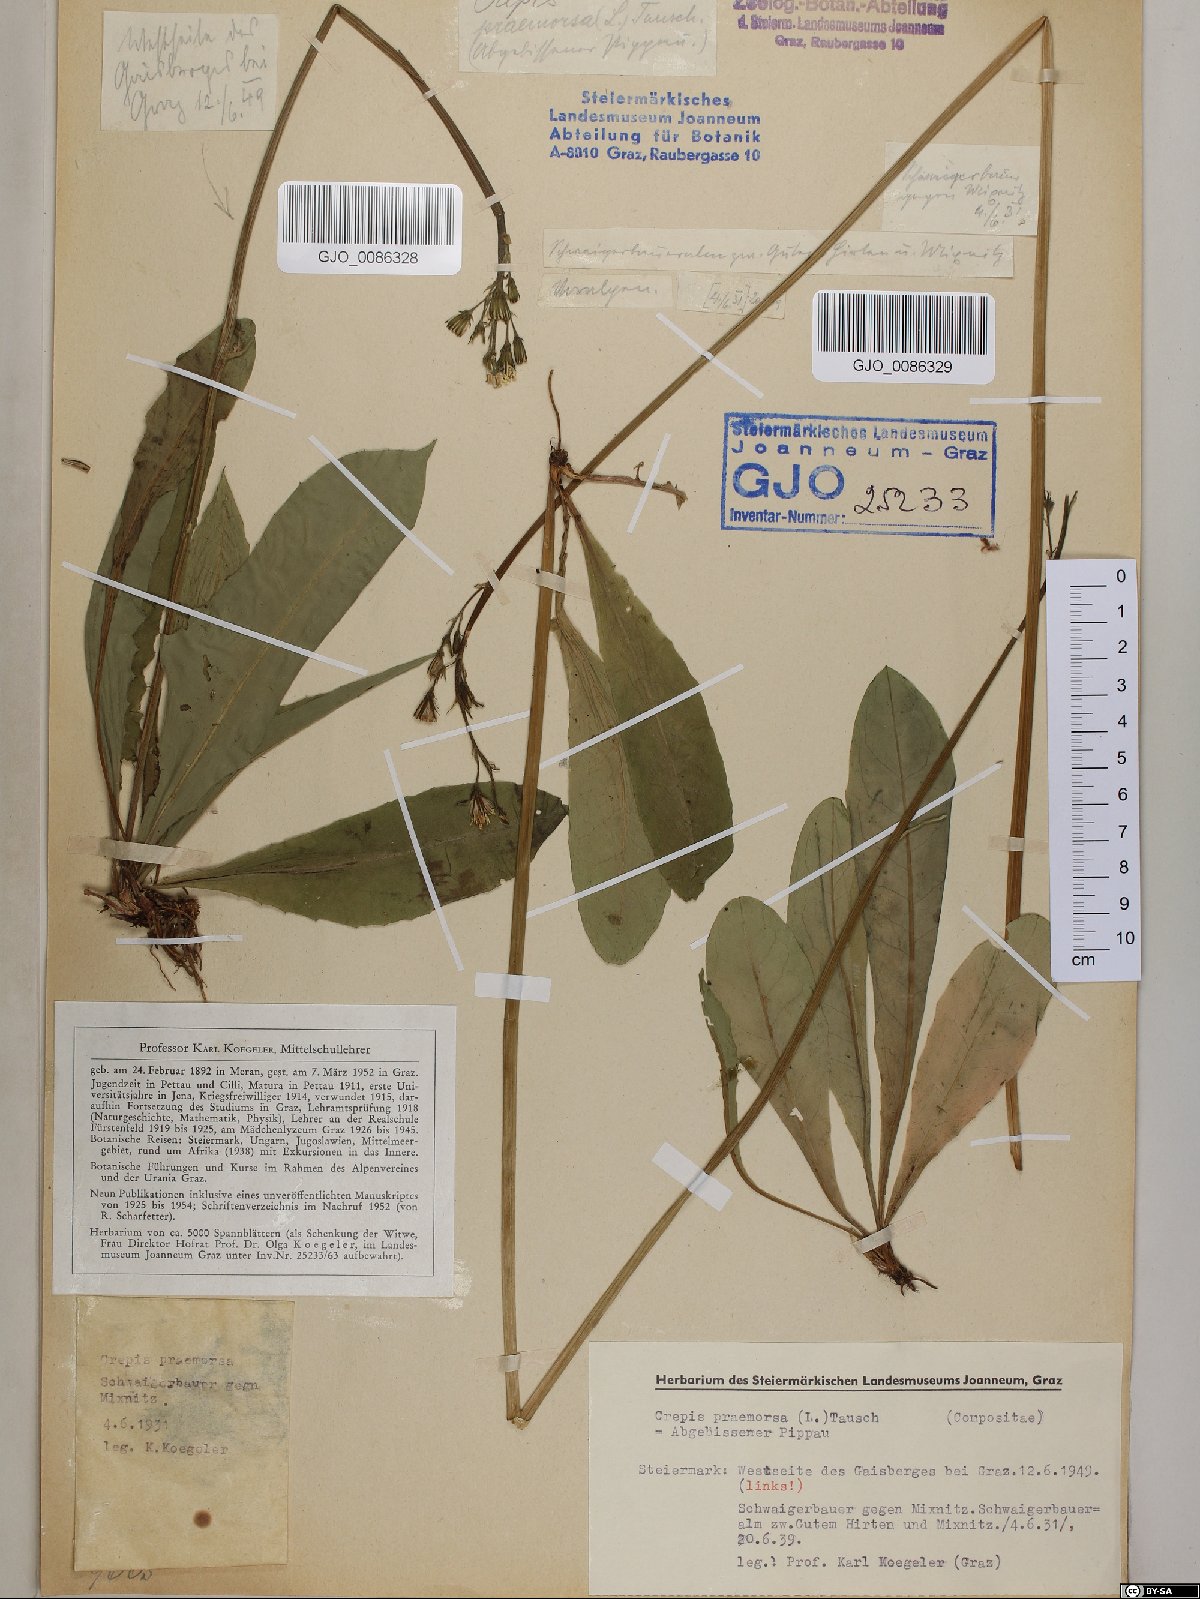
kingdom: Plantae
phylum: Tracheophyta
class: Magnoliopsida
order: Asterales
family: Asteraceae
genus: Crepis
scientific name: Crepis praemorsa
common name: Leafless hawk's-beard
